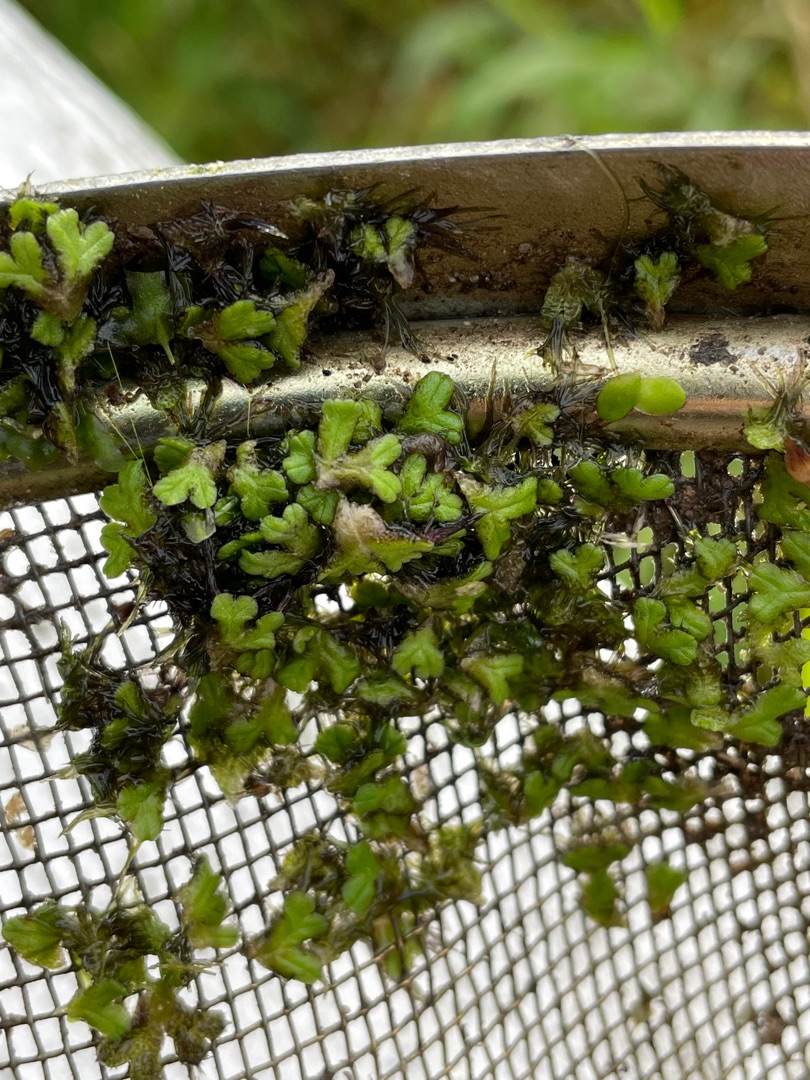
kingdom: Plantae
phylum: Marchantiophyta
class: Marchantiopsida
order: Marchantiales
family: Ricciaceae
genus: Ricciocarpos
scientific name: Ricciocarpos natans
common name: Flydende skælløv
